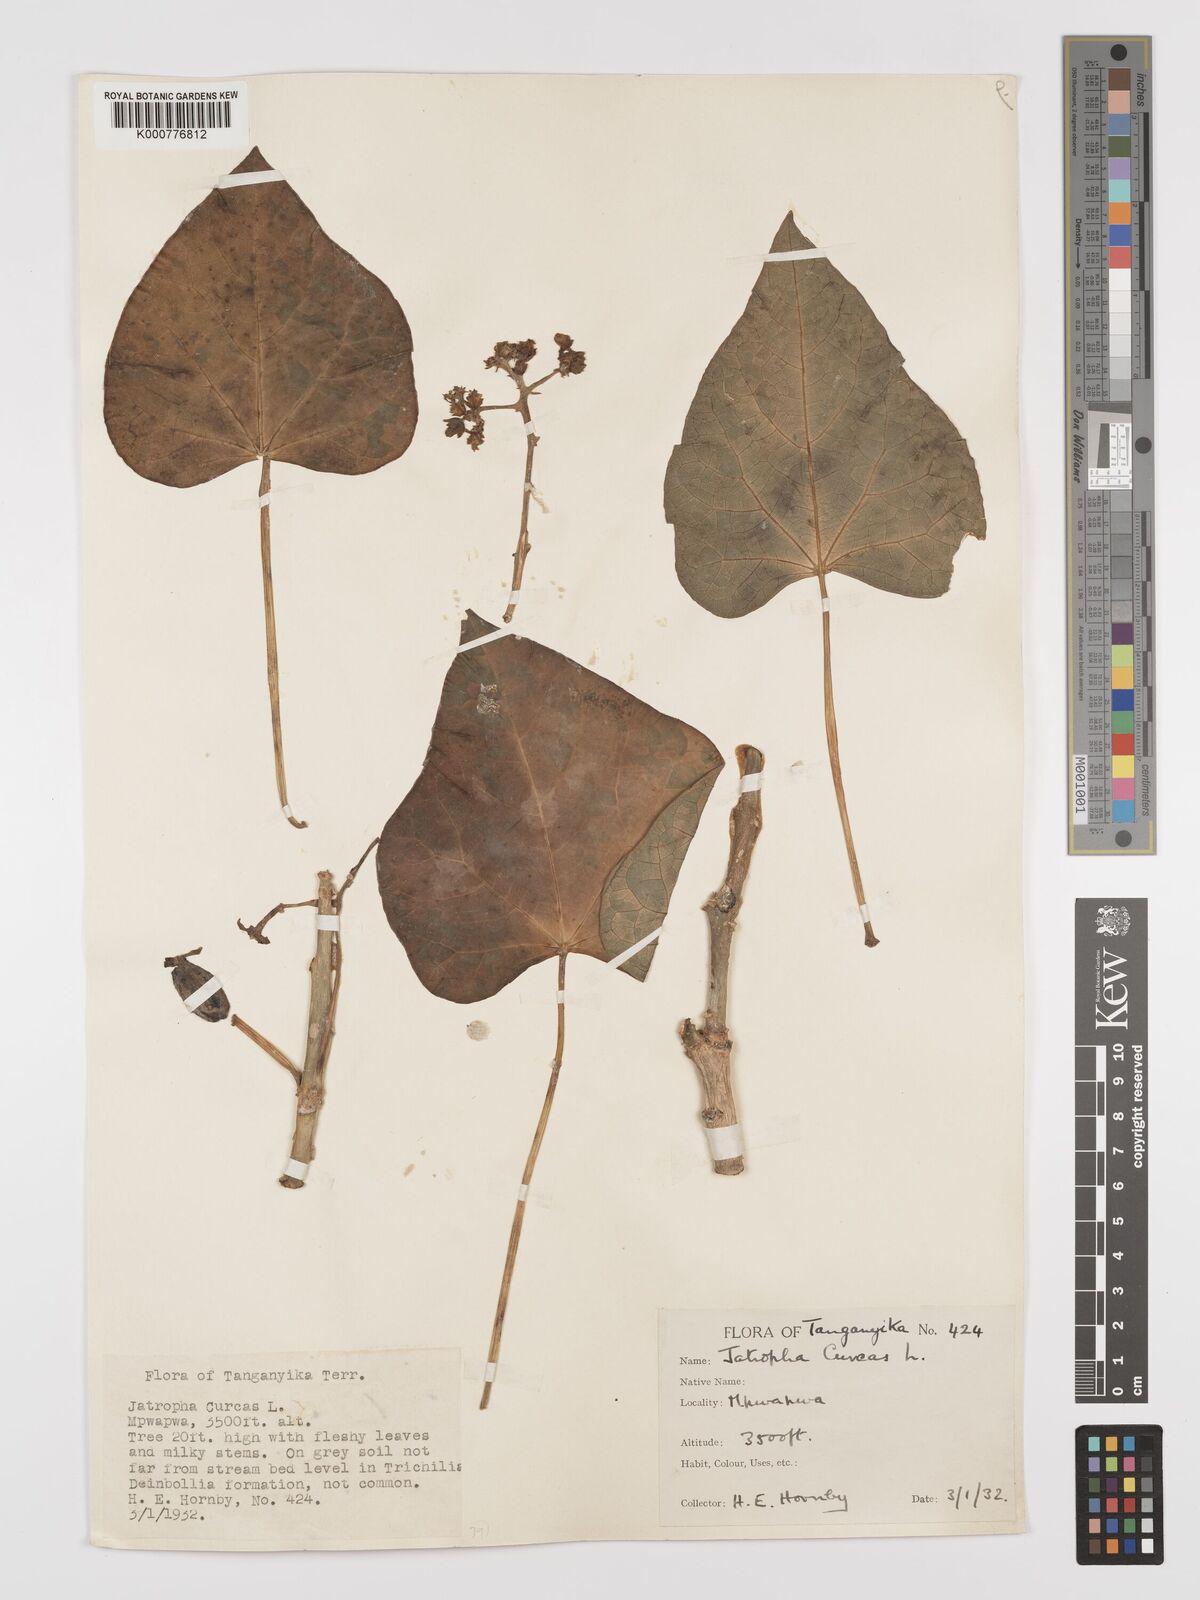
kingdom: Plantae
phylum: Tracheophyta
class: Magnoliopsida
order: Malpighiales
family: Euphorbiaceae
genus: Jatropha
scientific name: Jatropha curcas
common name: Barbados nut
